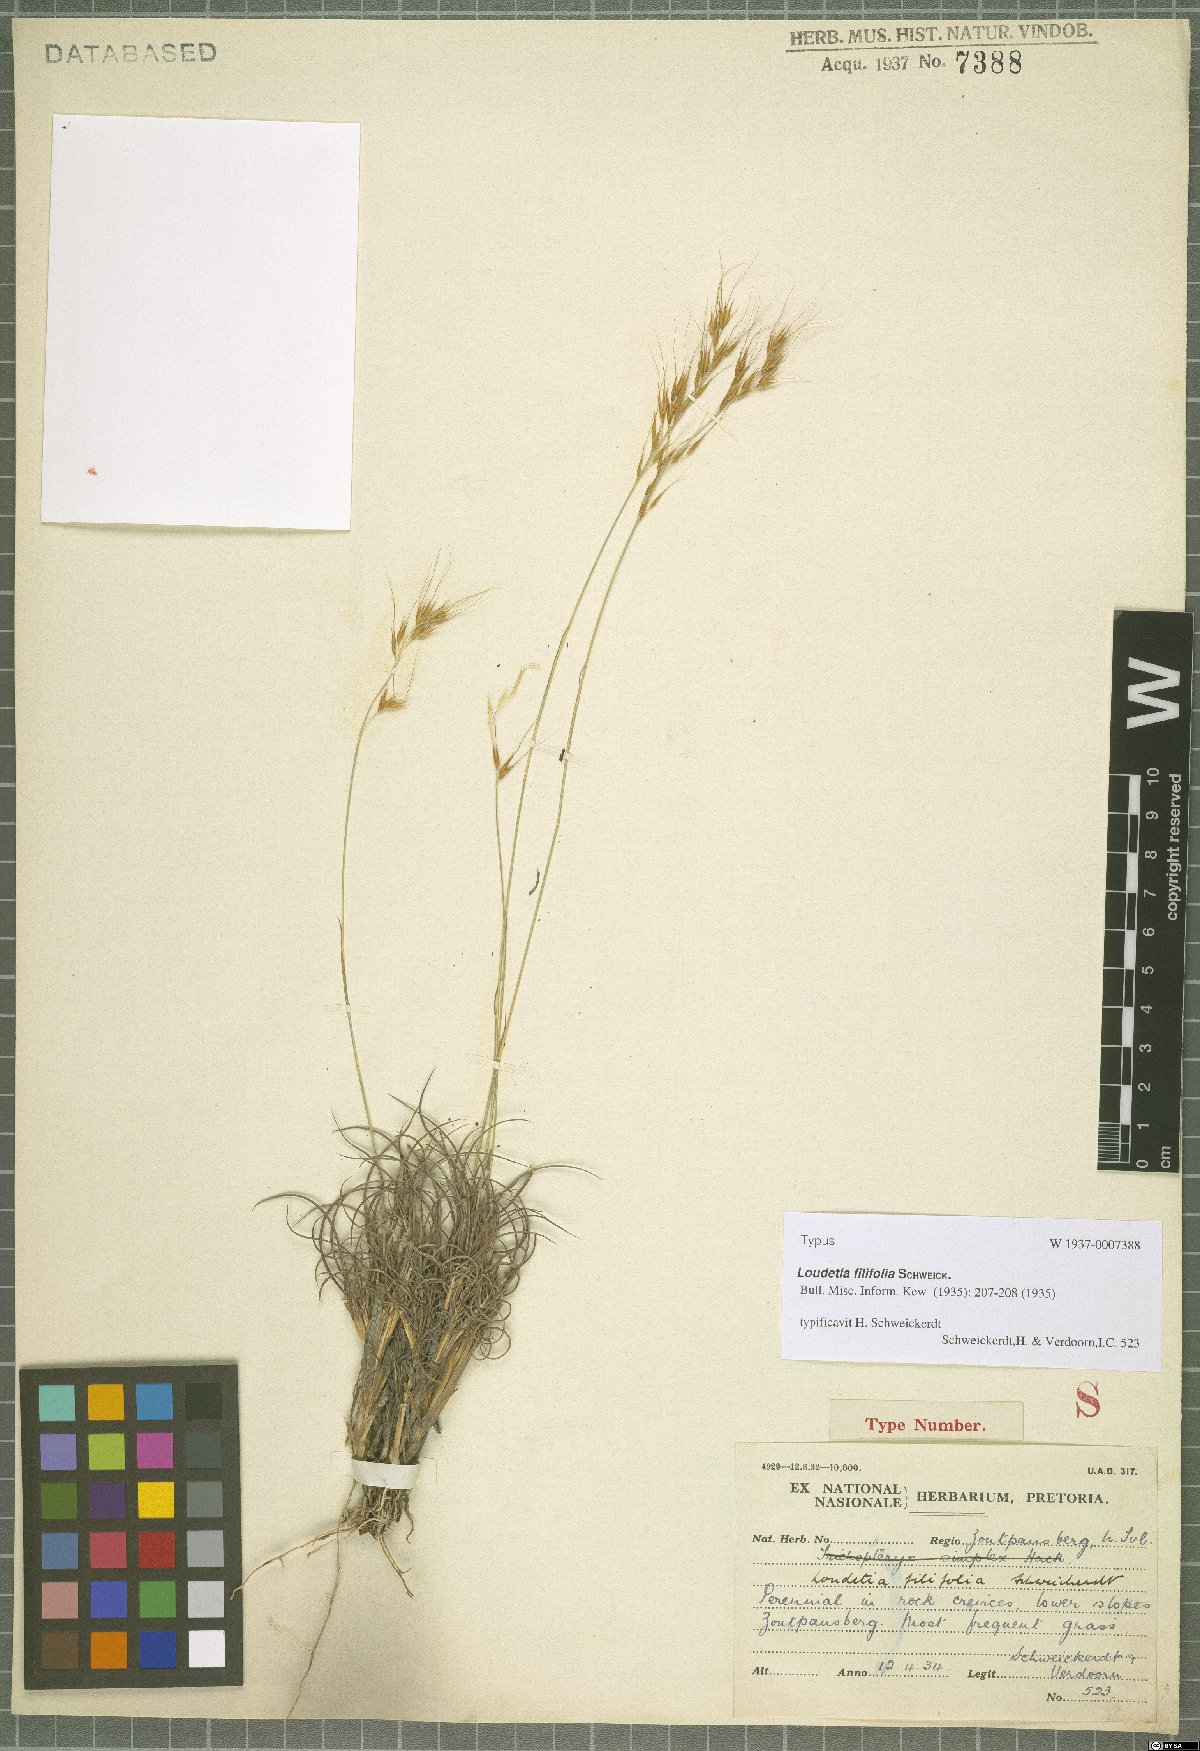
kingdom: Plantae
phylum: Tracheophyta
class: Liliopsida
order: Poales
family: Poaceae
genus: Loudetia
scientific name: Loudetia filifolia
